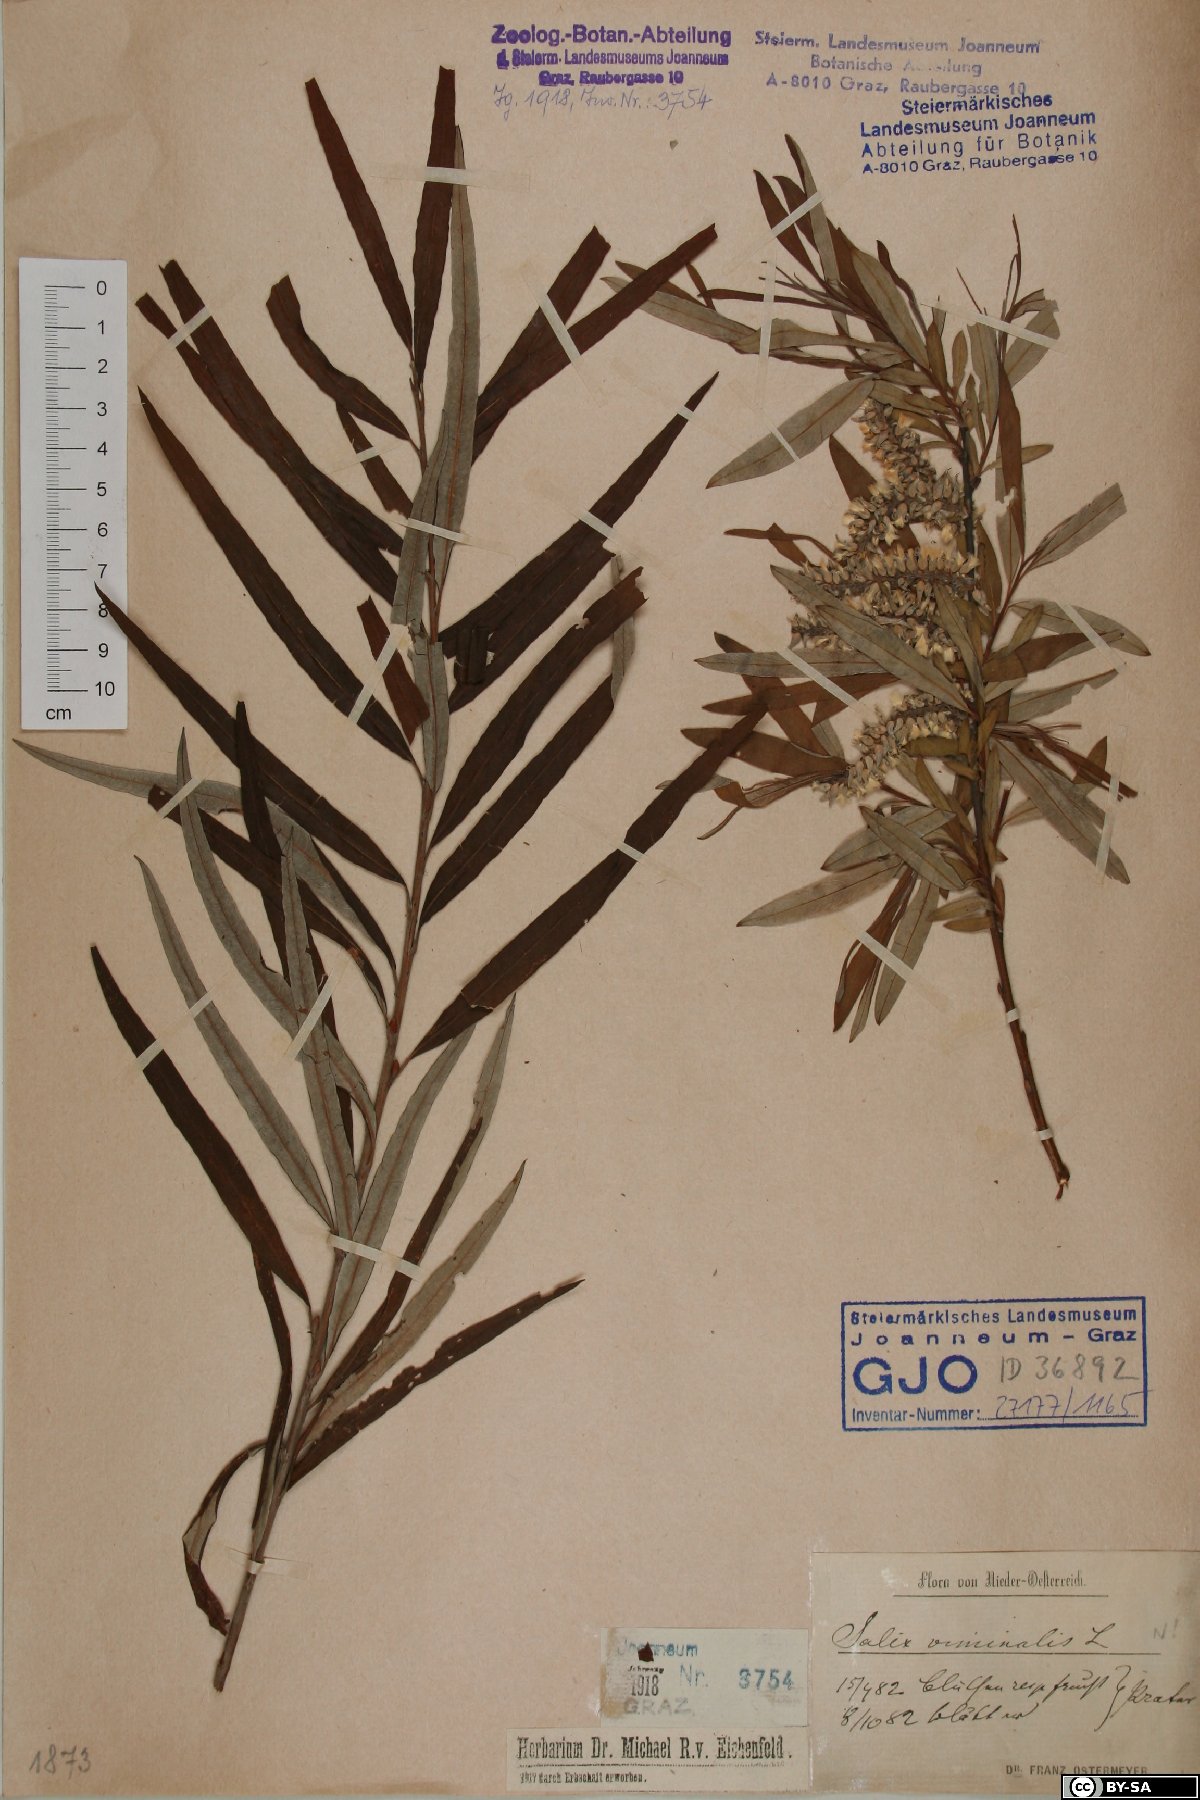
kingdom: Plantae
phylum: Tracheophyta
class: Magnoliopsida
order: Malpighiales
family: Salicaceae
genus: Salix
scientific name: Salix viminalis
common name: Osier
